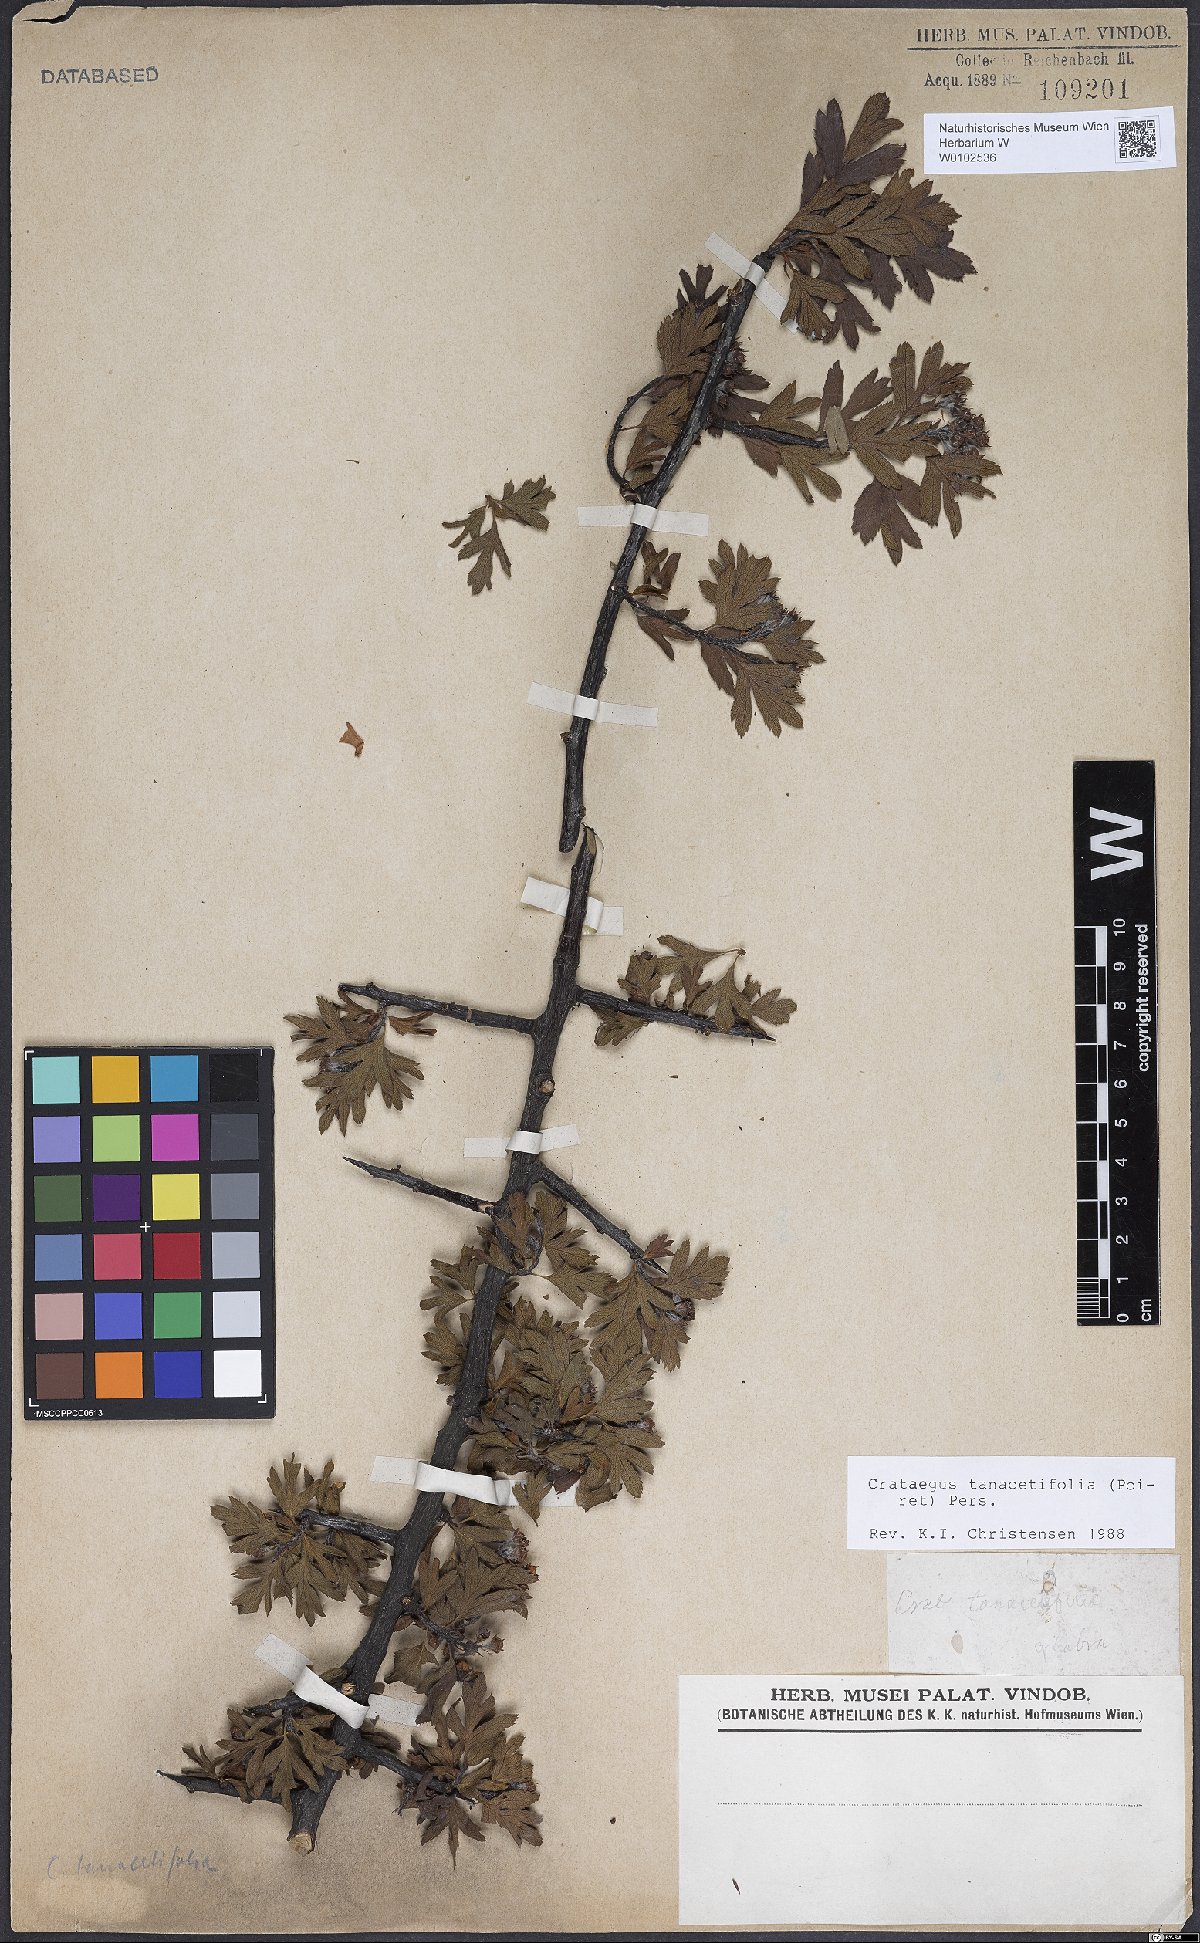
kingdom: Plantae
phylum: Tracheophyta
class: Magnoliopsida
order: Rosales
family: Rosaceae
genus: Crataegus
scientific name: Crataegus tanacetifolia
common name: Tansy-leaved thorn
